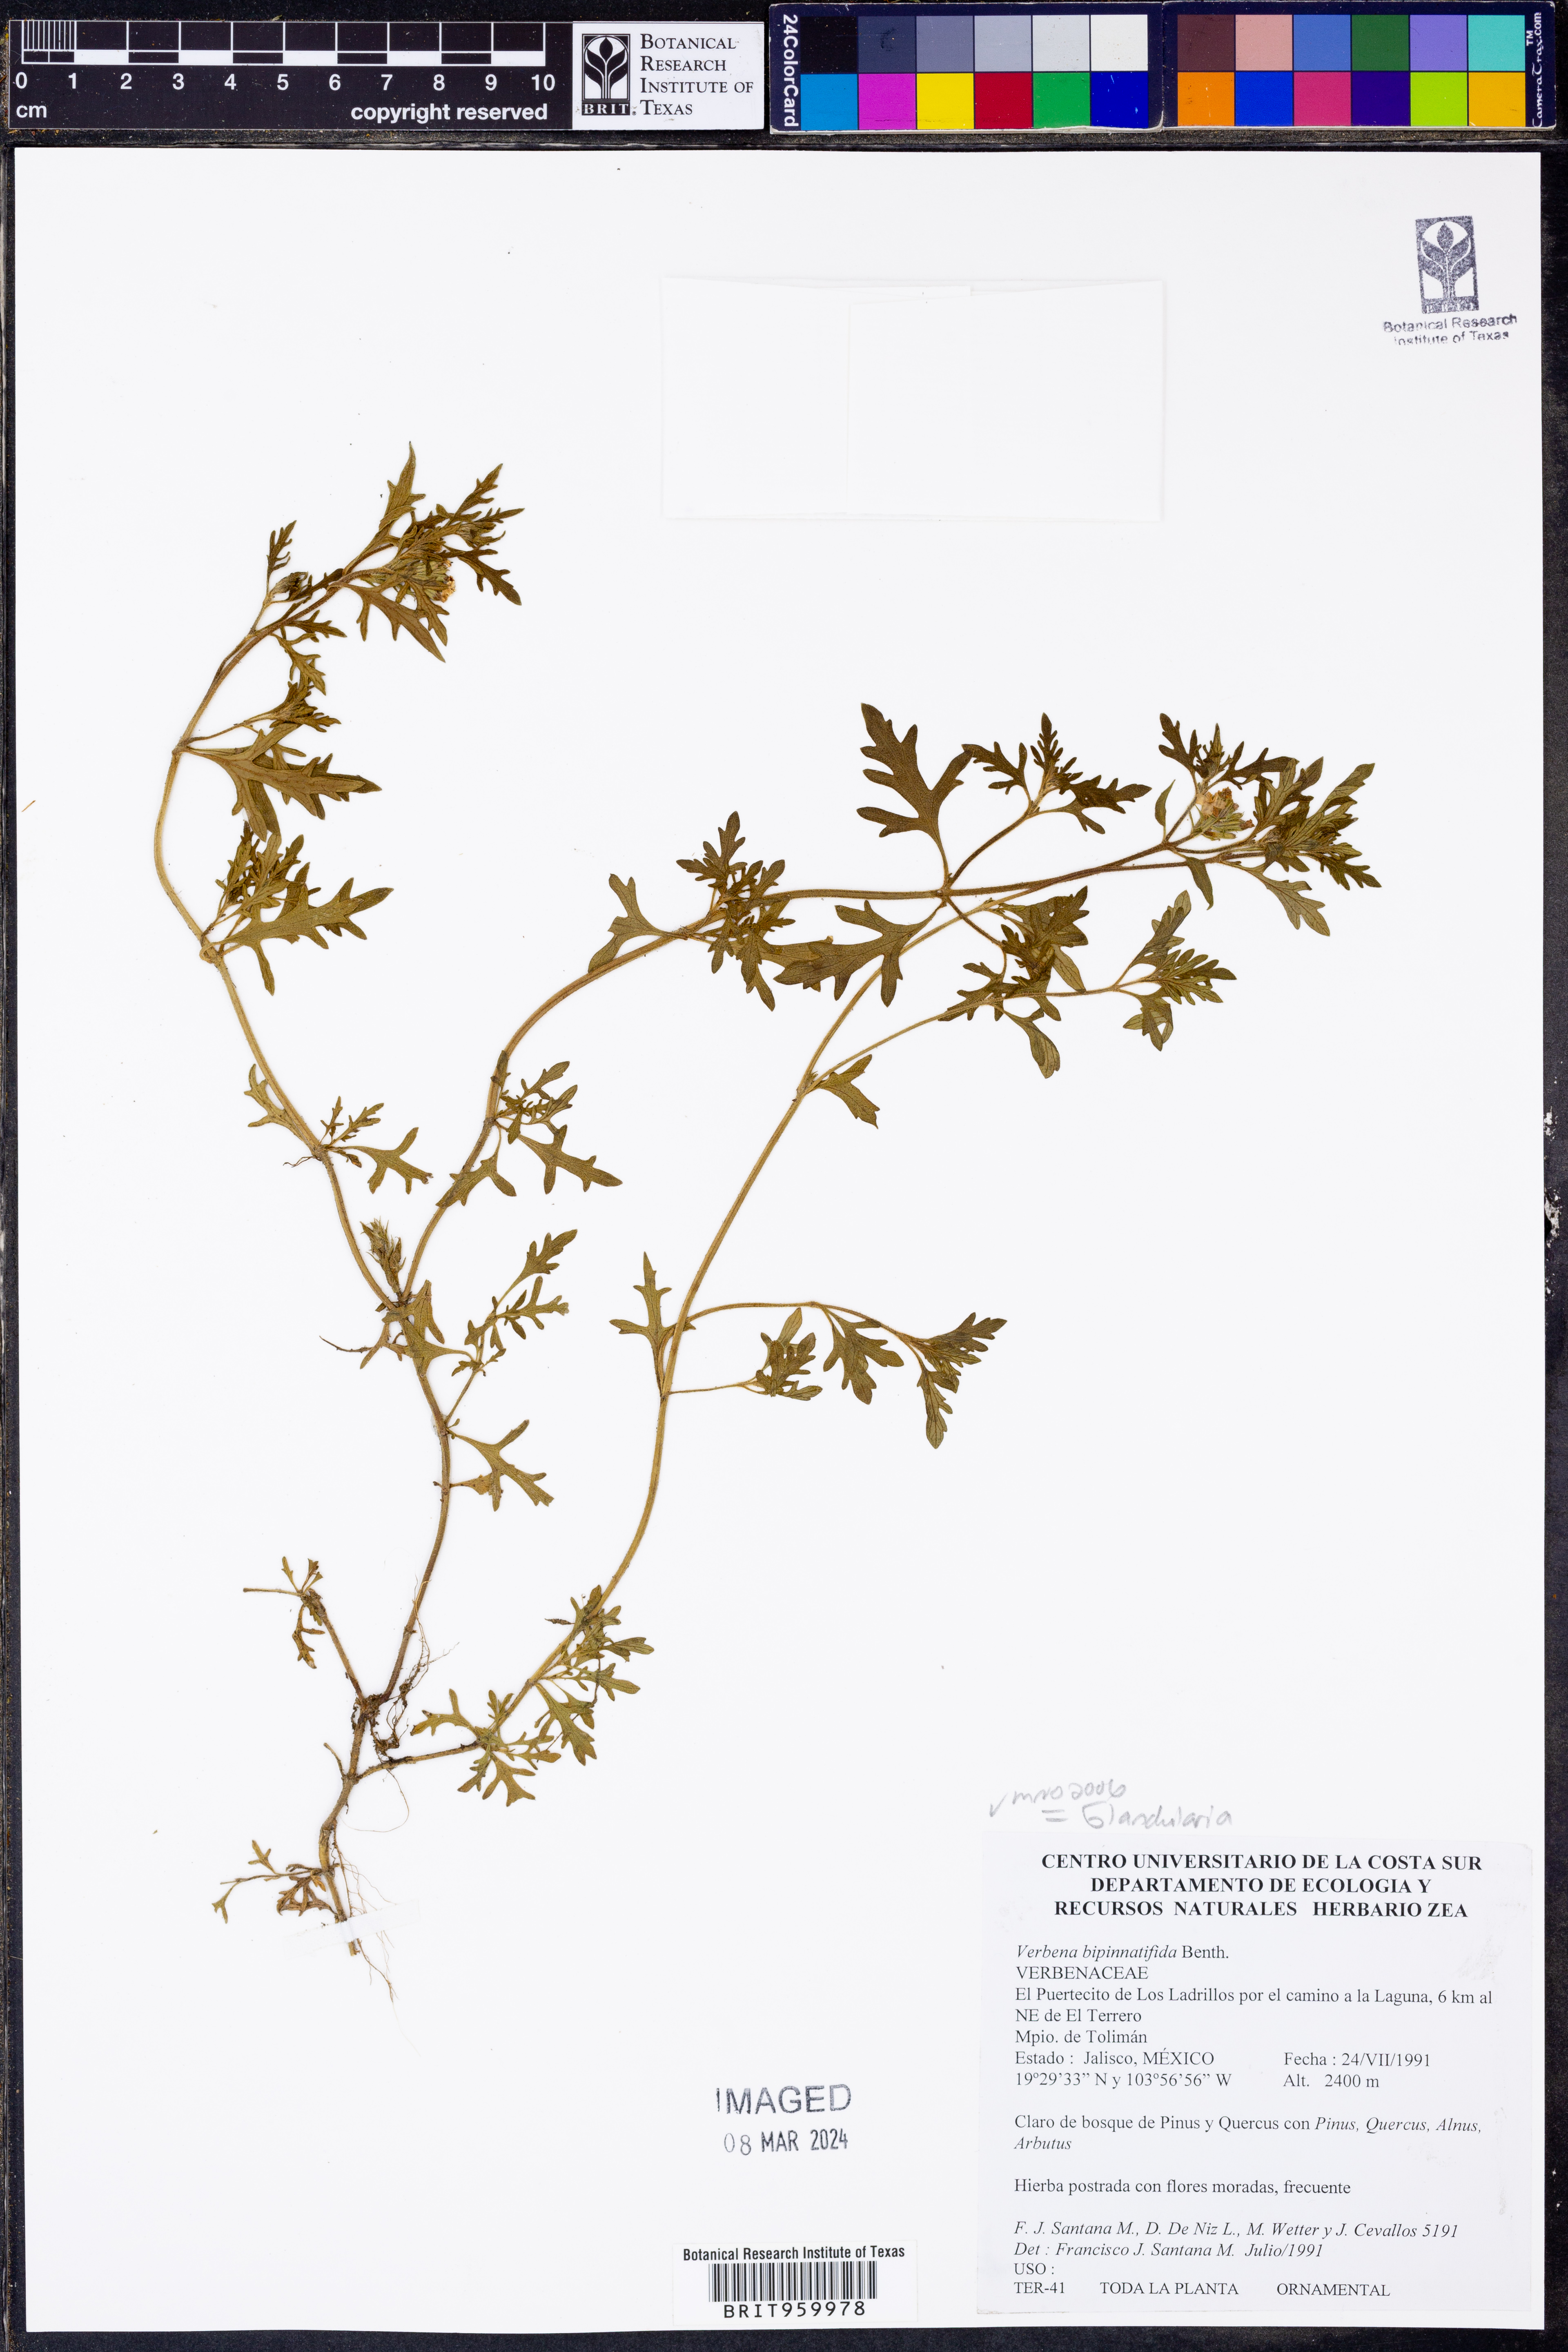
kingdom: Plantae
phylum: Tracheophyta
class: Magnoliopsida
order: Lamiales
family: Verbenaceae
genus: Verbena
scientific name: Verbena
